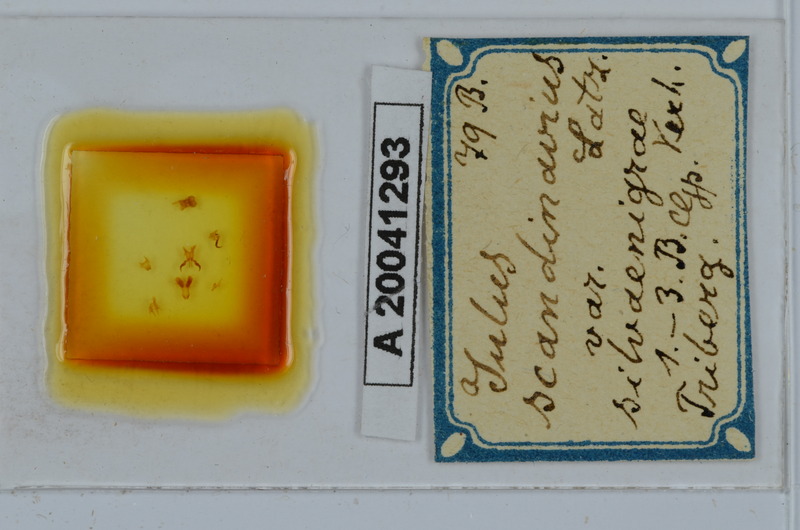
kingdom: Animalia
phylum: Arthropoda
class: Diplopoda
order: Julida
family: Julidae
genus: Julus
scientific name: Julus scandinavius
